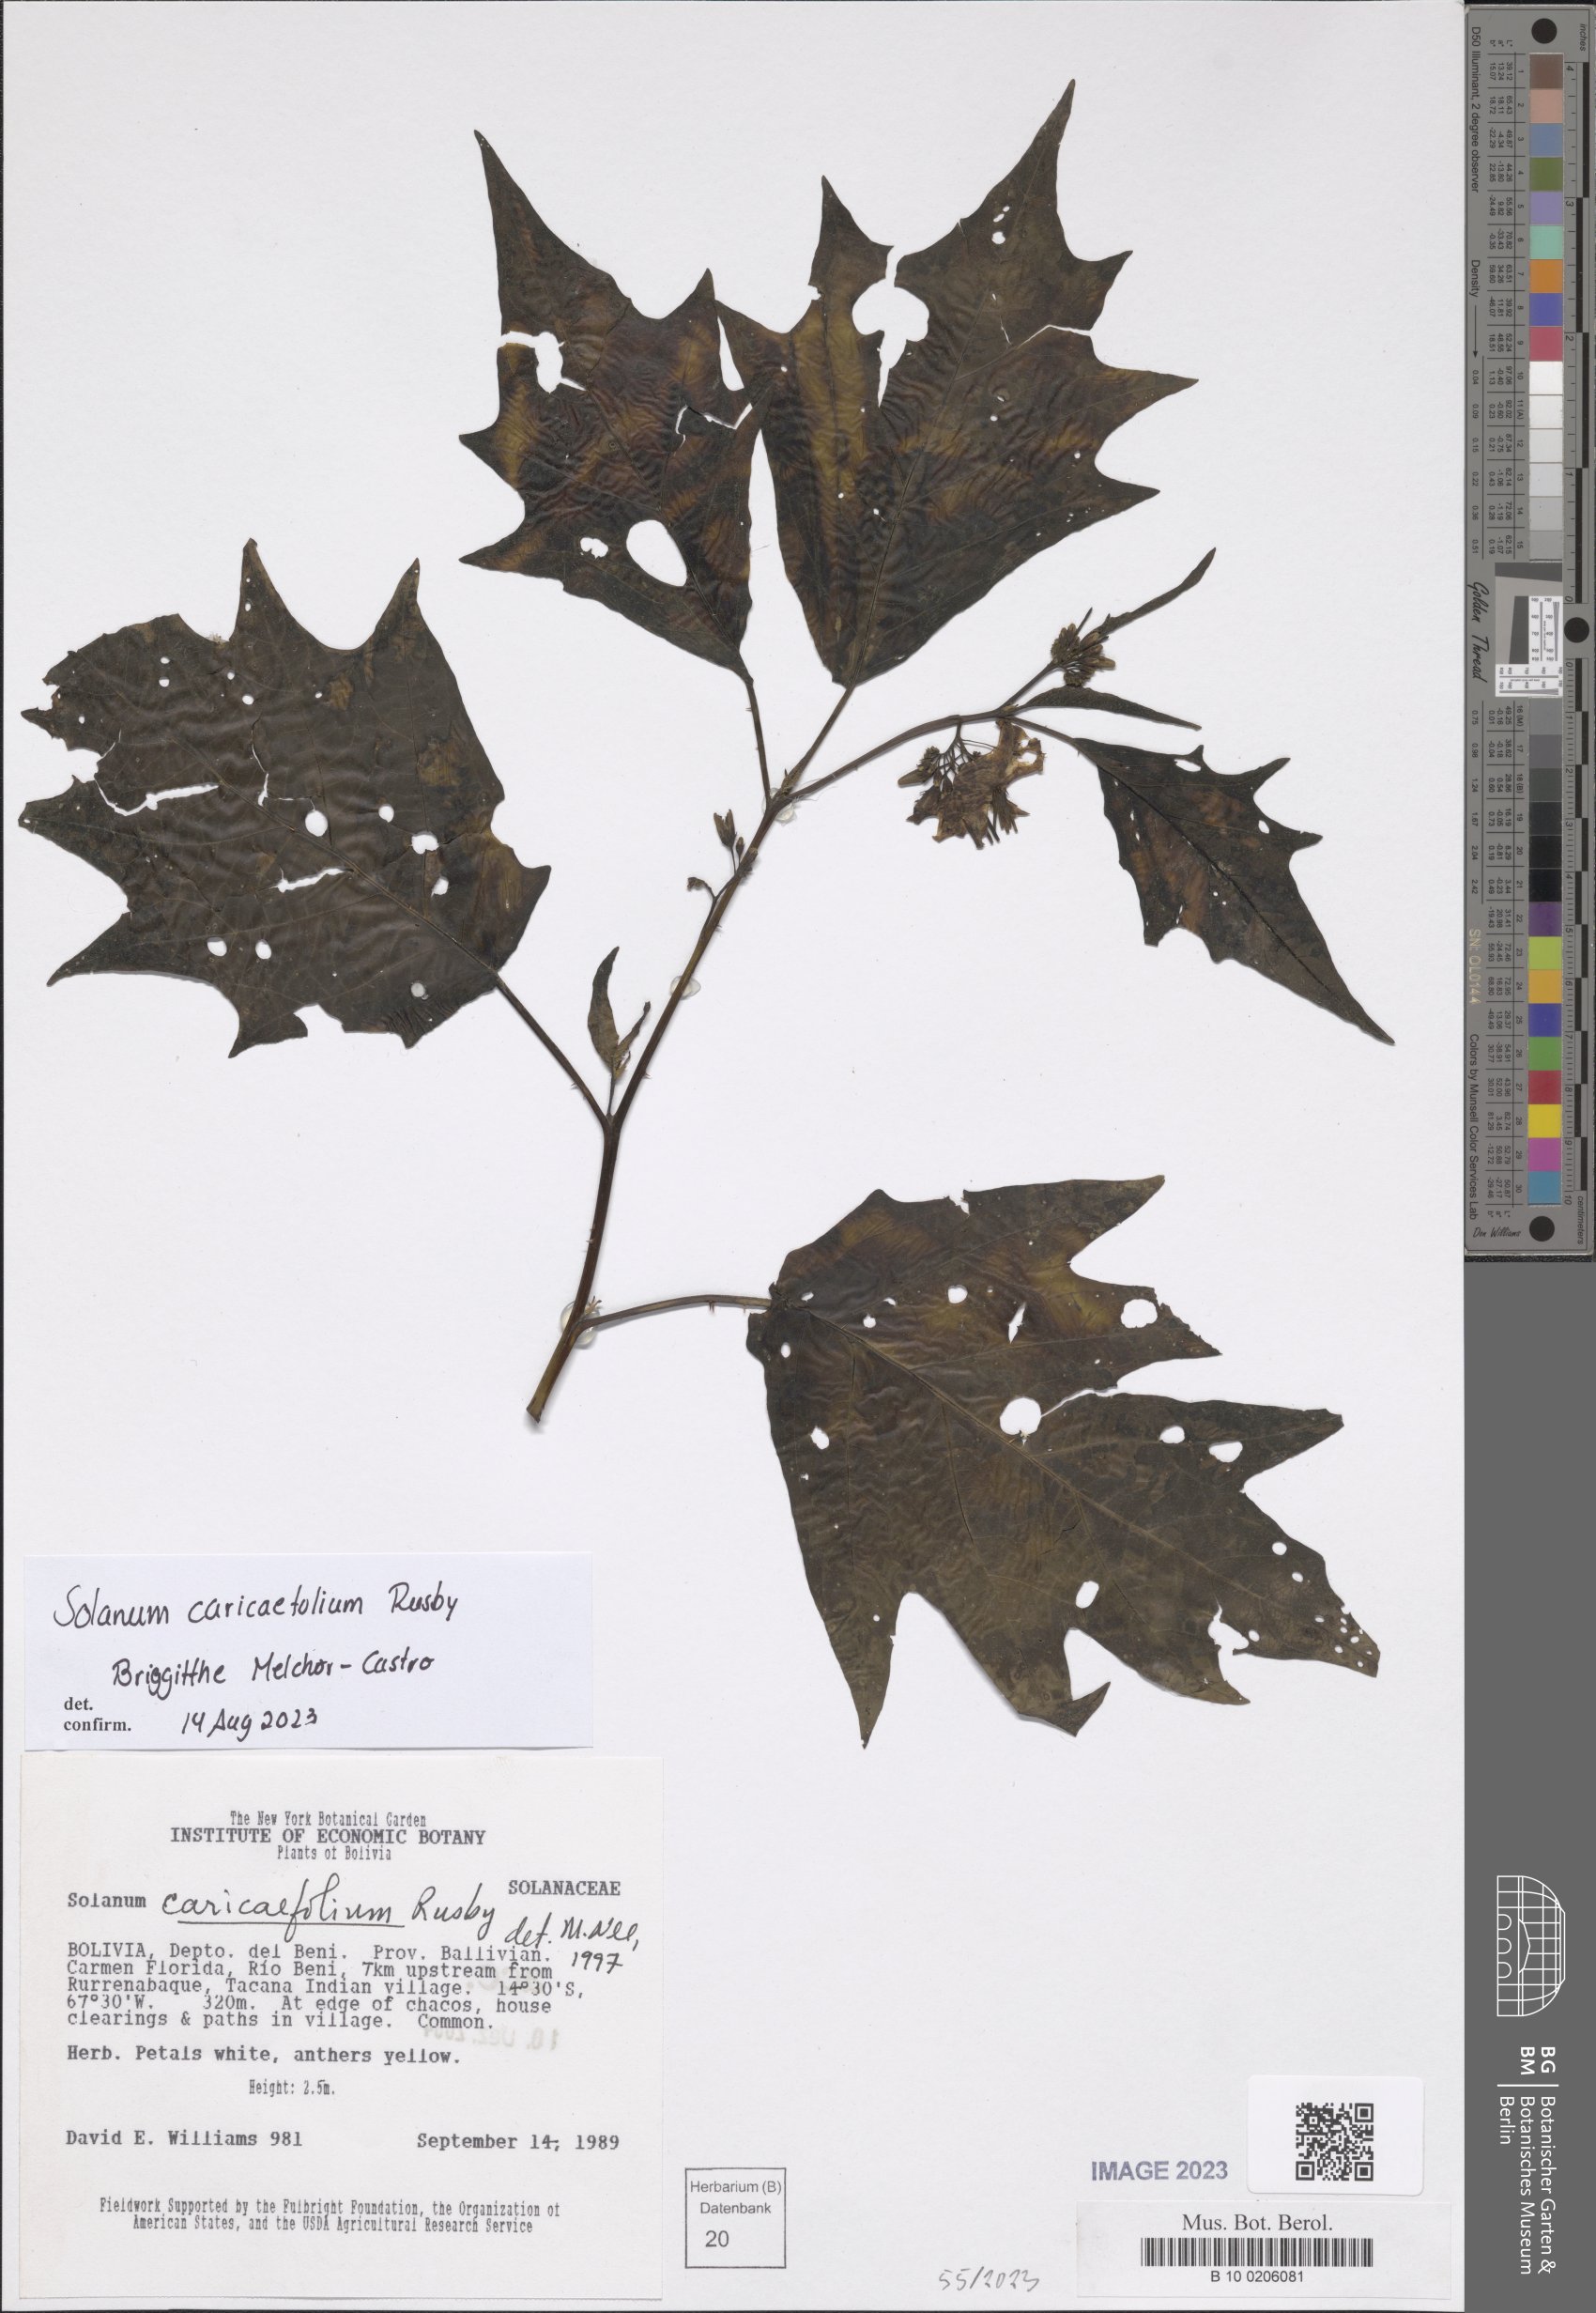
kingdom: Plantae
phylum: Tracheophyta
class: Magnoliopsida
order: Solanales
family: Solanaceae
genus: Solanum
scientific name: Solanum caricaefolium
